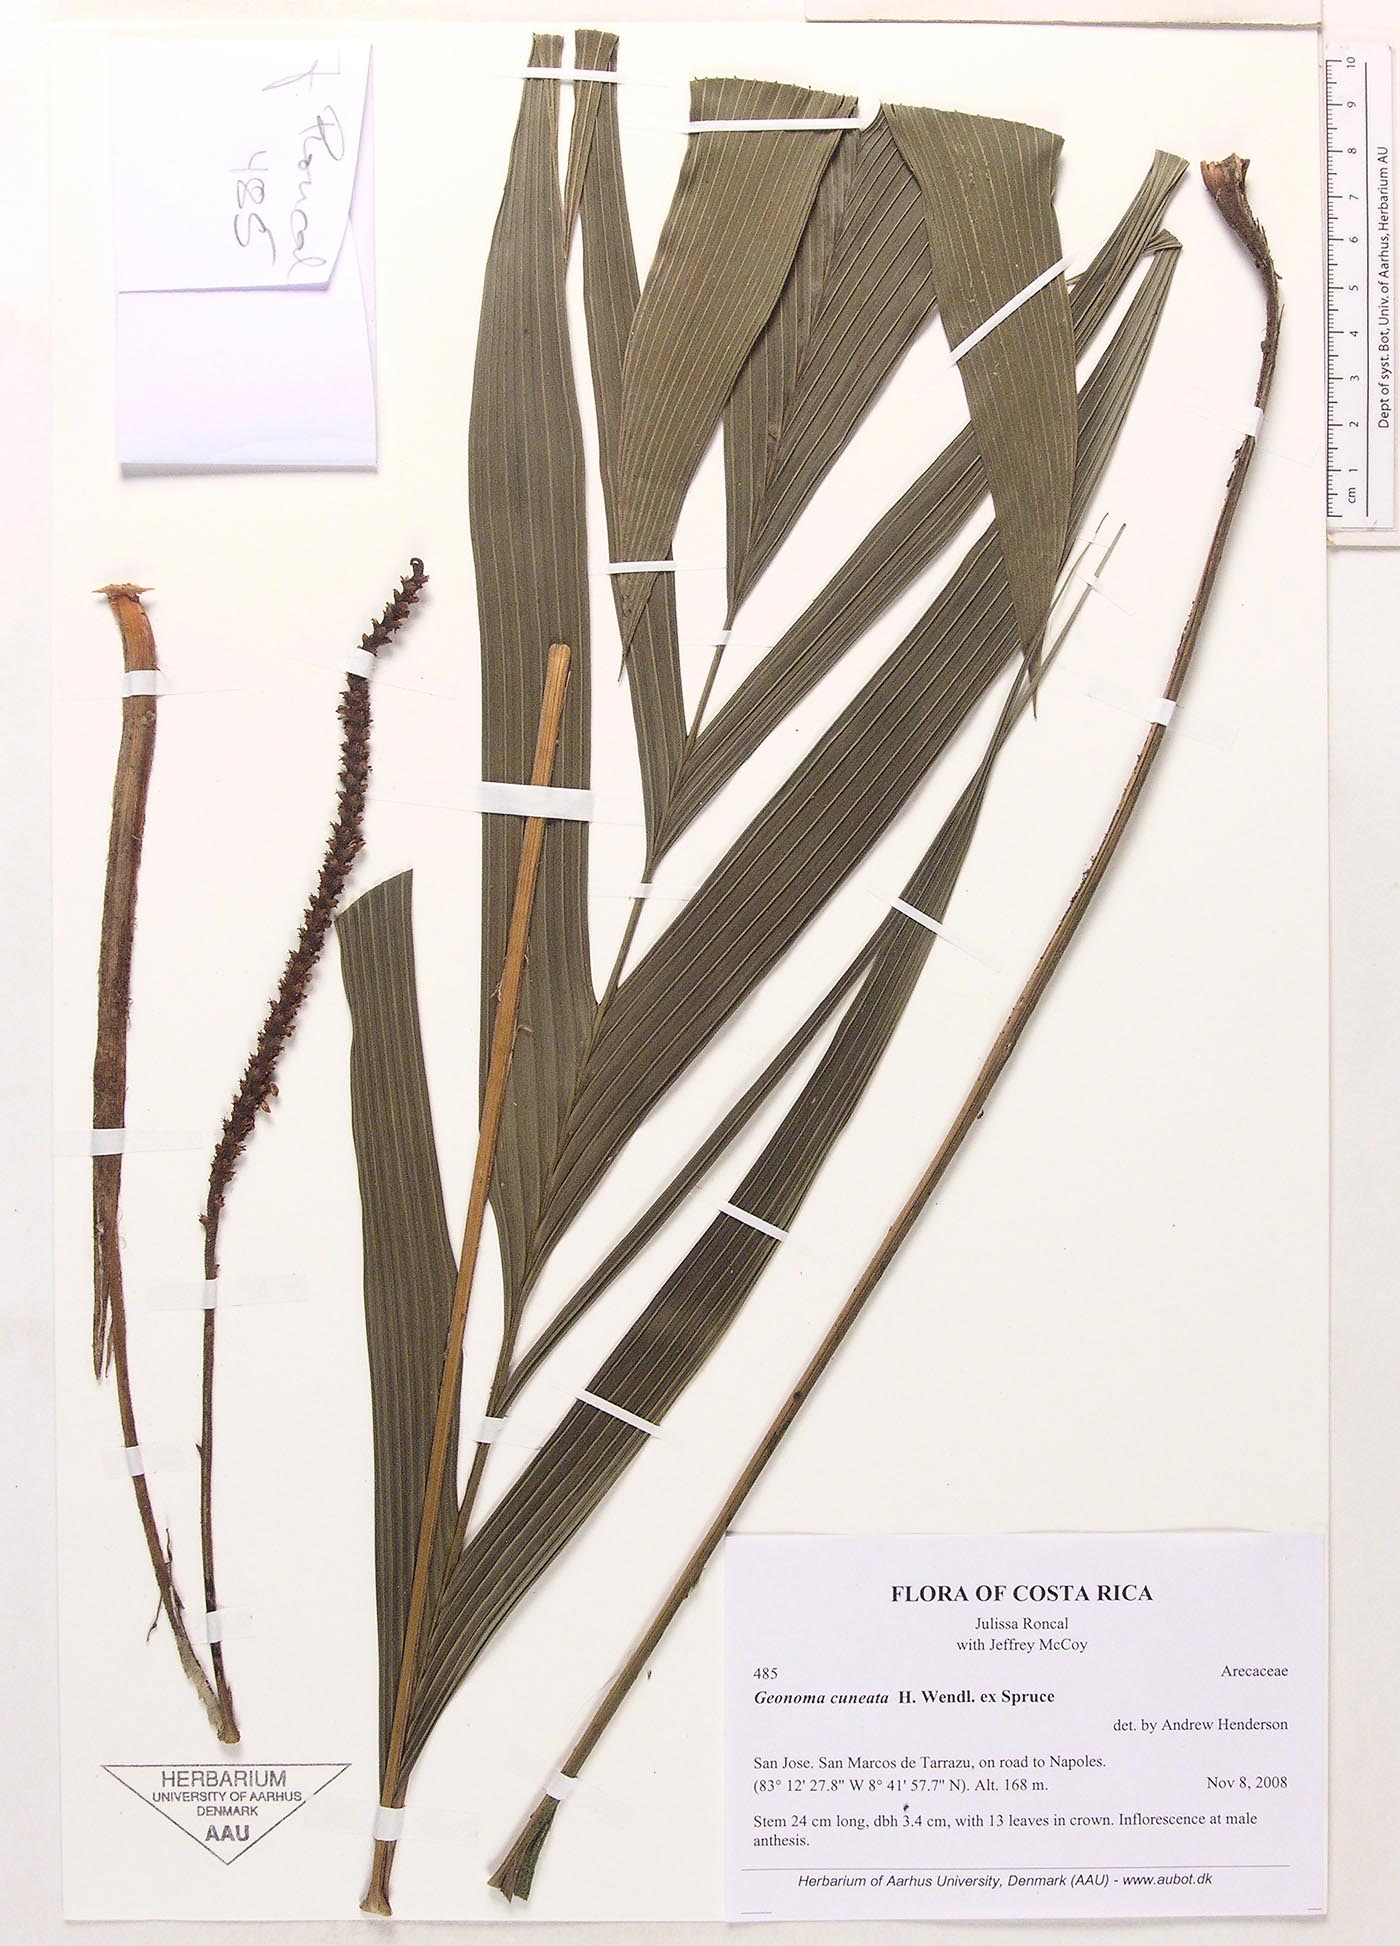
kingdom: Plantae
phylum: Tracheophyta
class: Liliopsida
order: Arecales
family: Arecaceae
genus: Geonoma
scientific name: Geonoma cuneata
